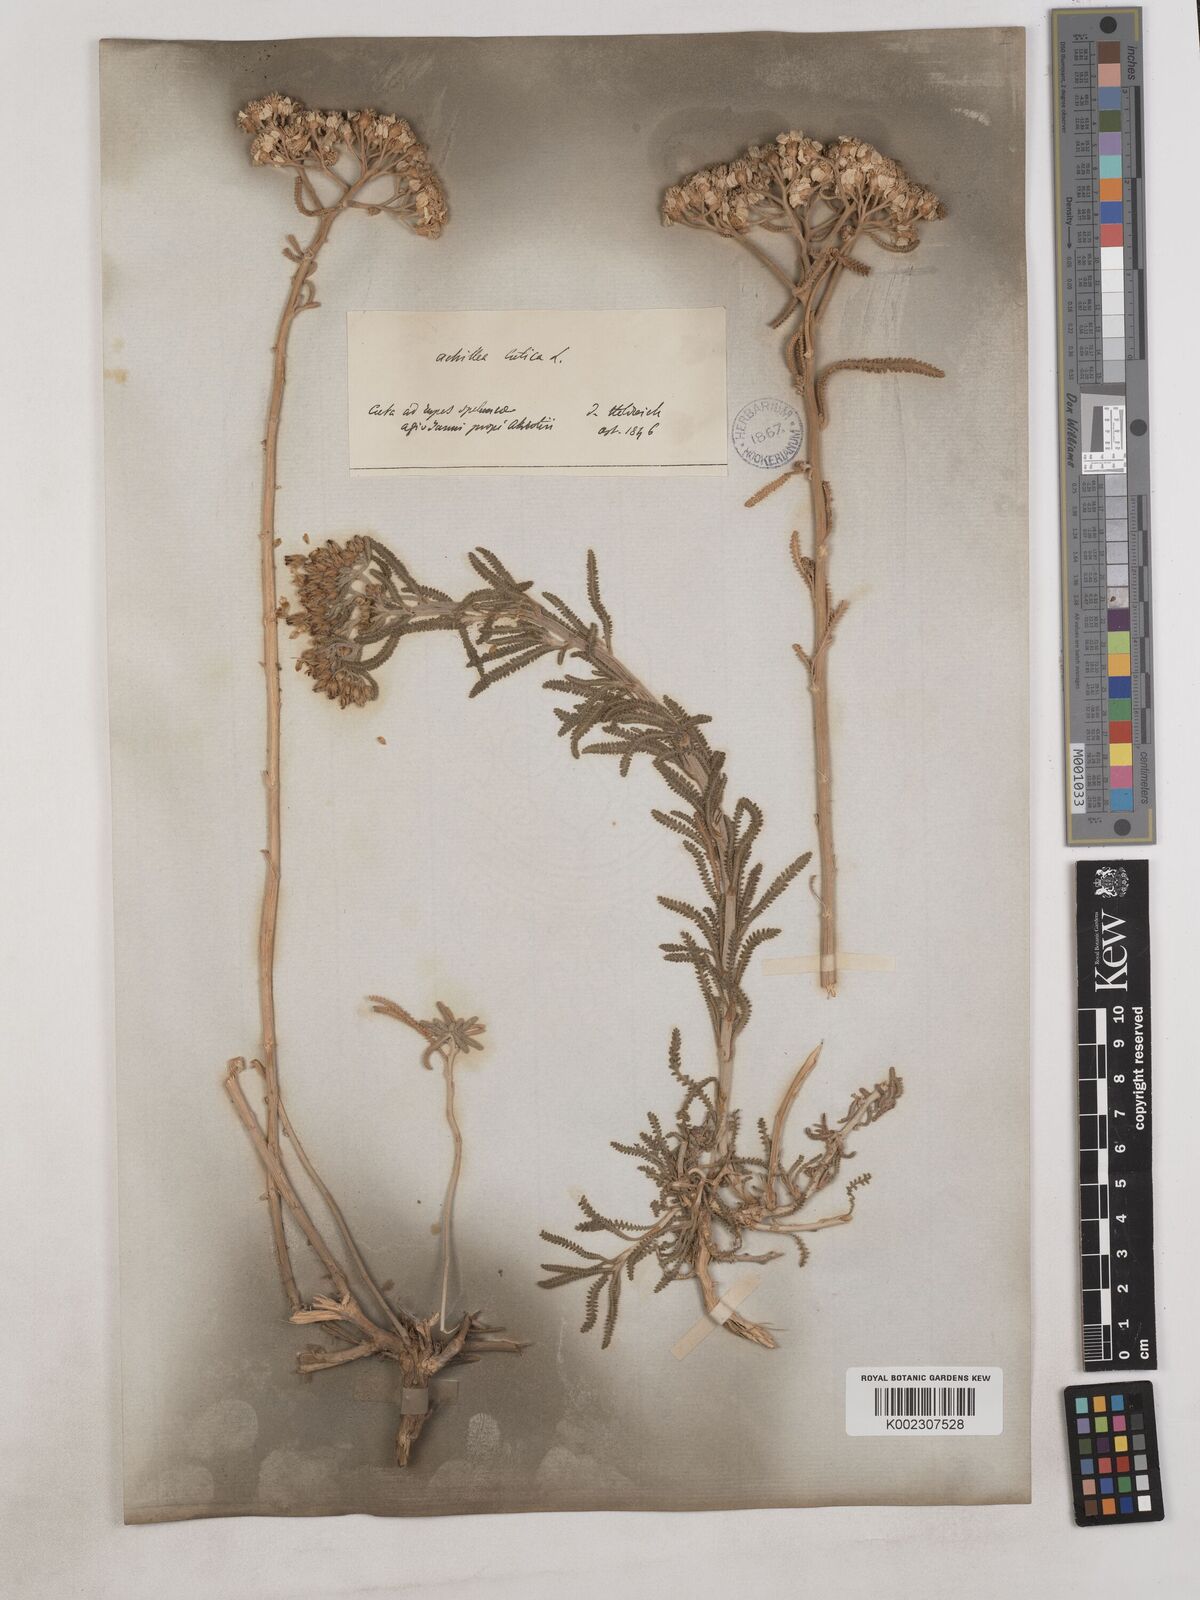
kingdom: Plantae
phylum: Tracheophyta
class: Magnoliopsida
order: Asterales
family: Asteraceae
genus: Achillea
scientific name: Achillea cretica
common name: Chamomile-leaved lavender-cotton
